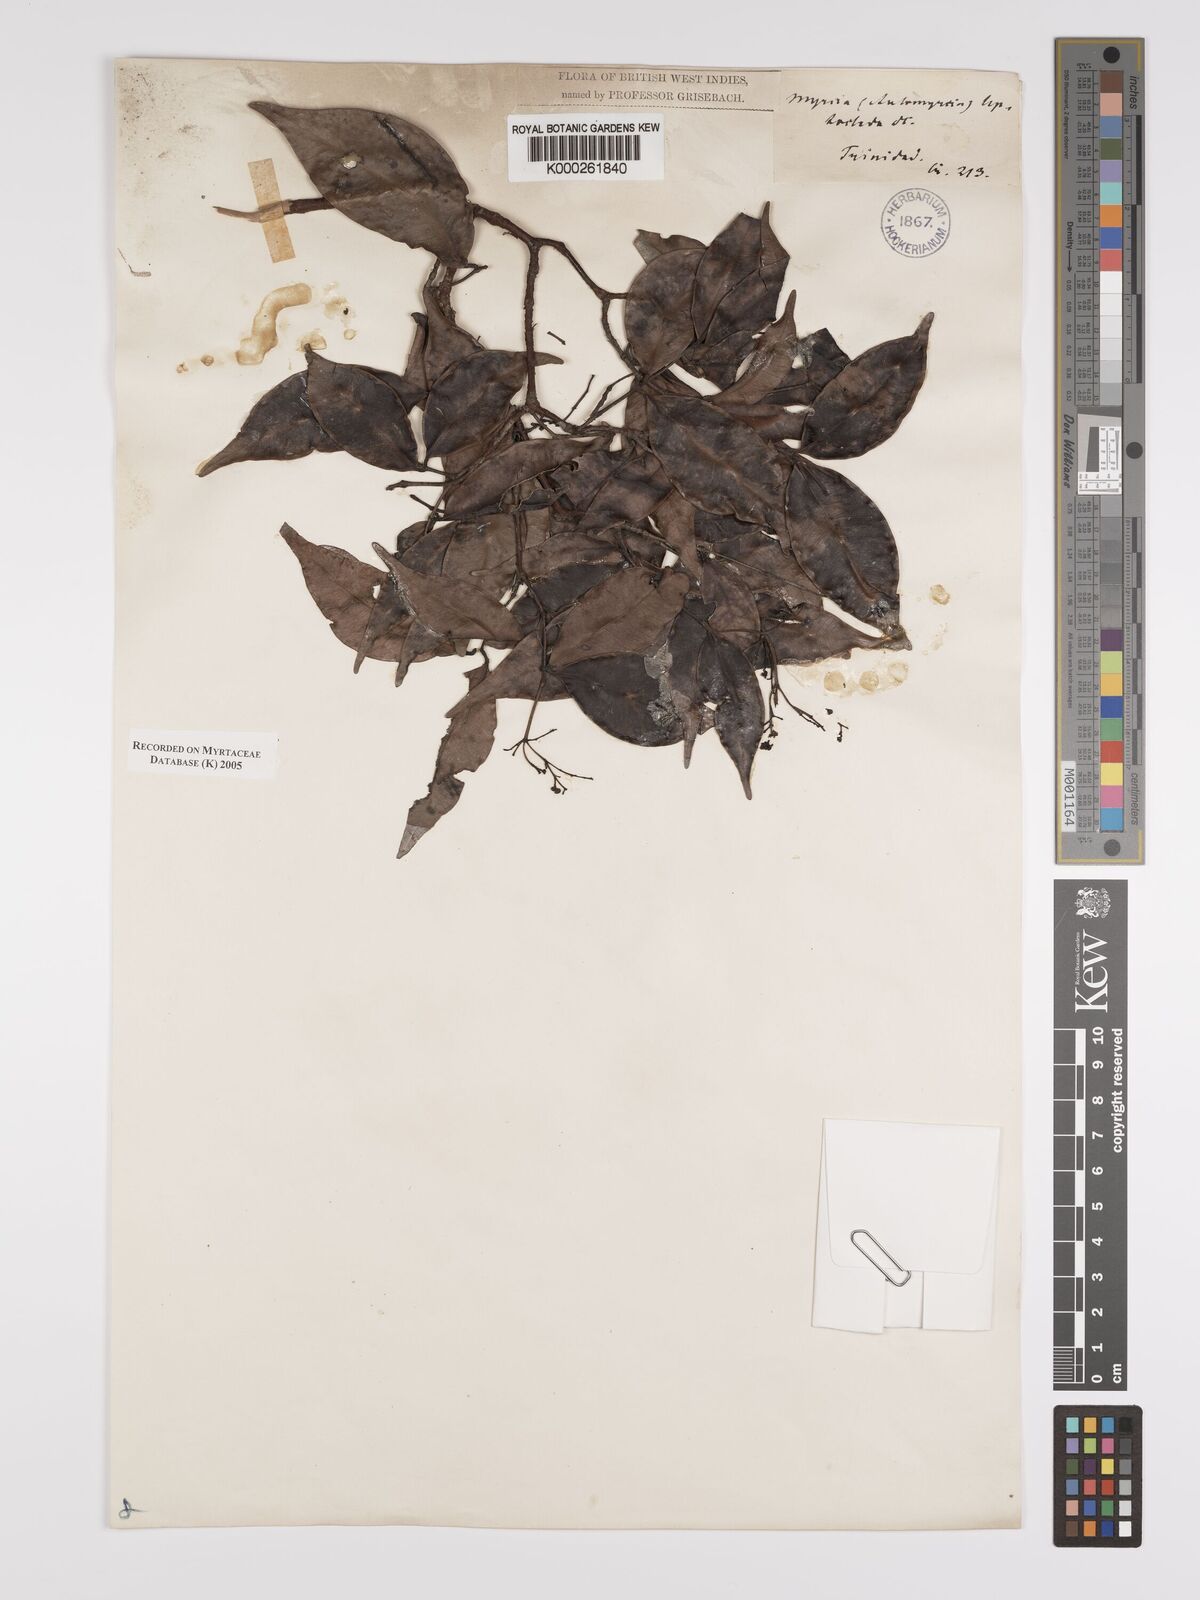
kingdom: Plantae
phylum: Tracheophyta
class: Magnoliopsida
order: Myrtales
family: Myrtaceae
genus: Myrcia
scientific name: Myrcia amazonica
